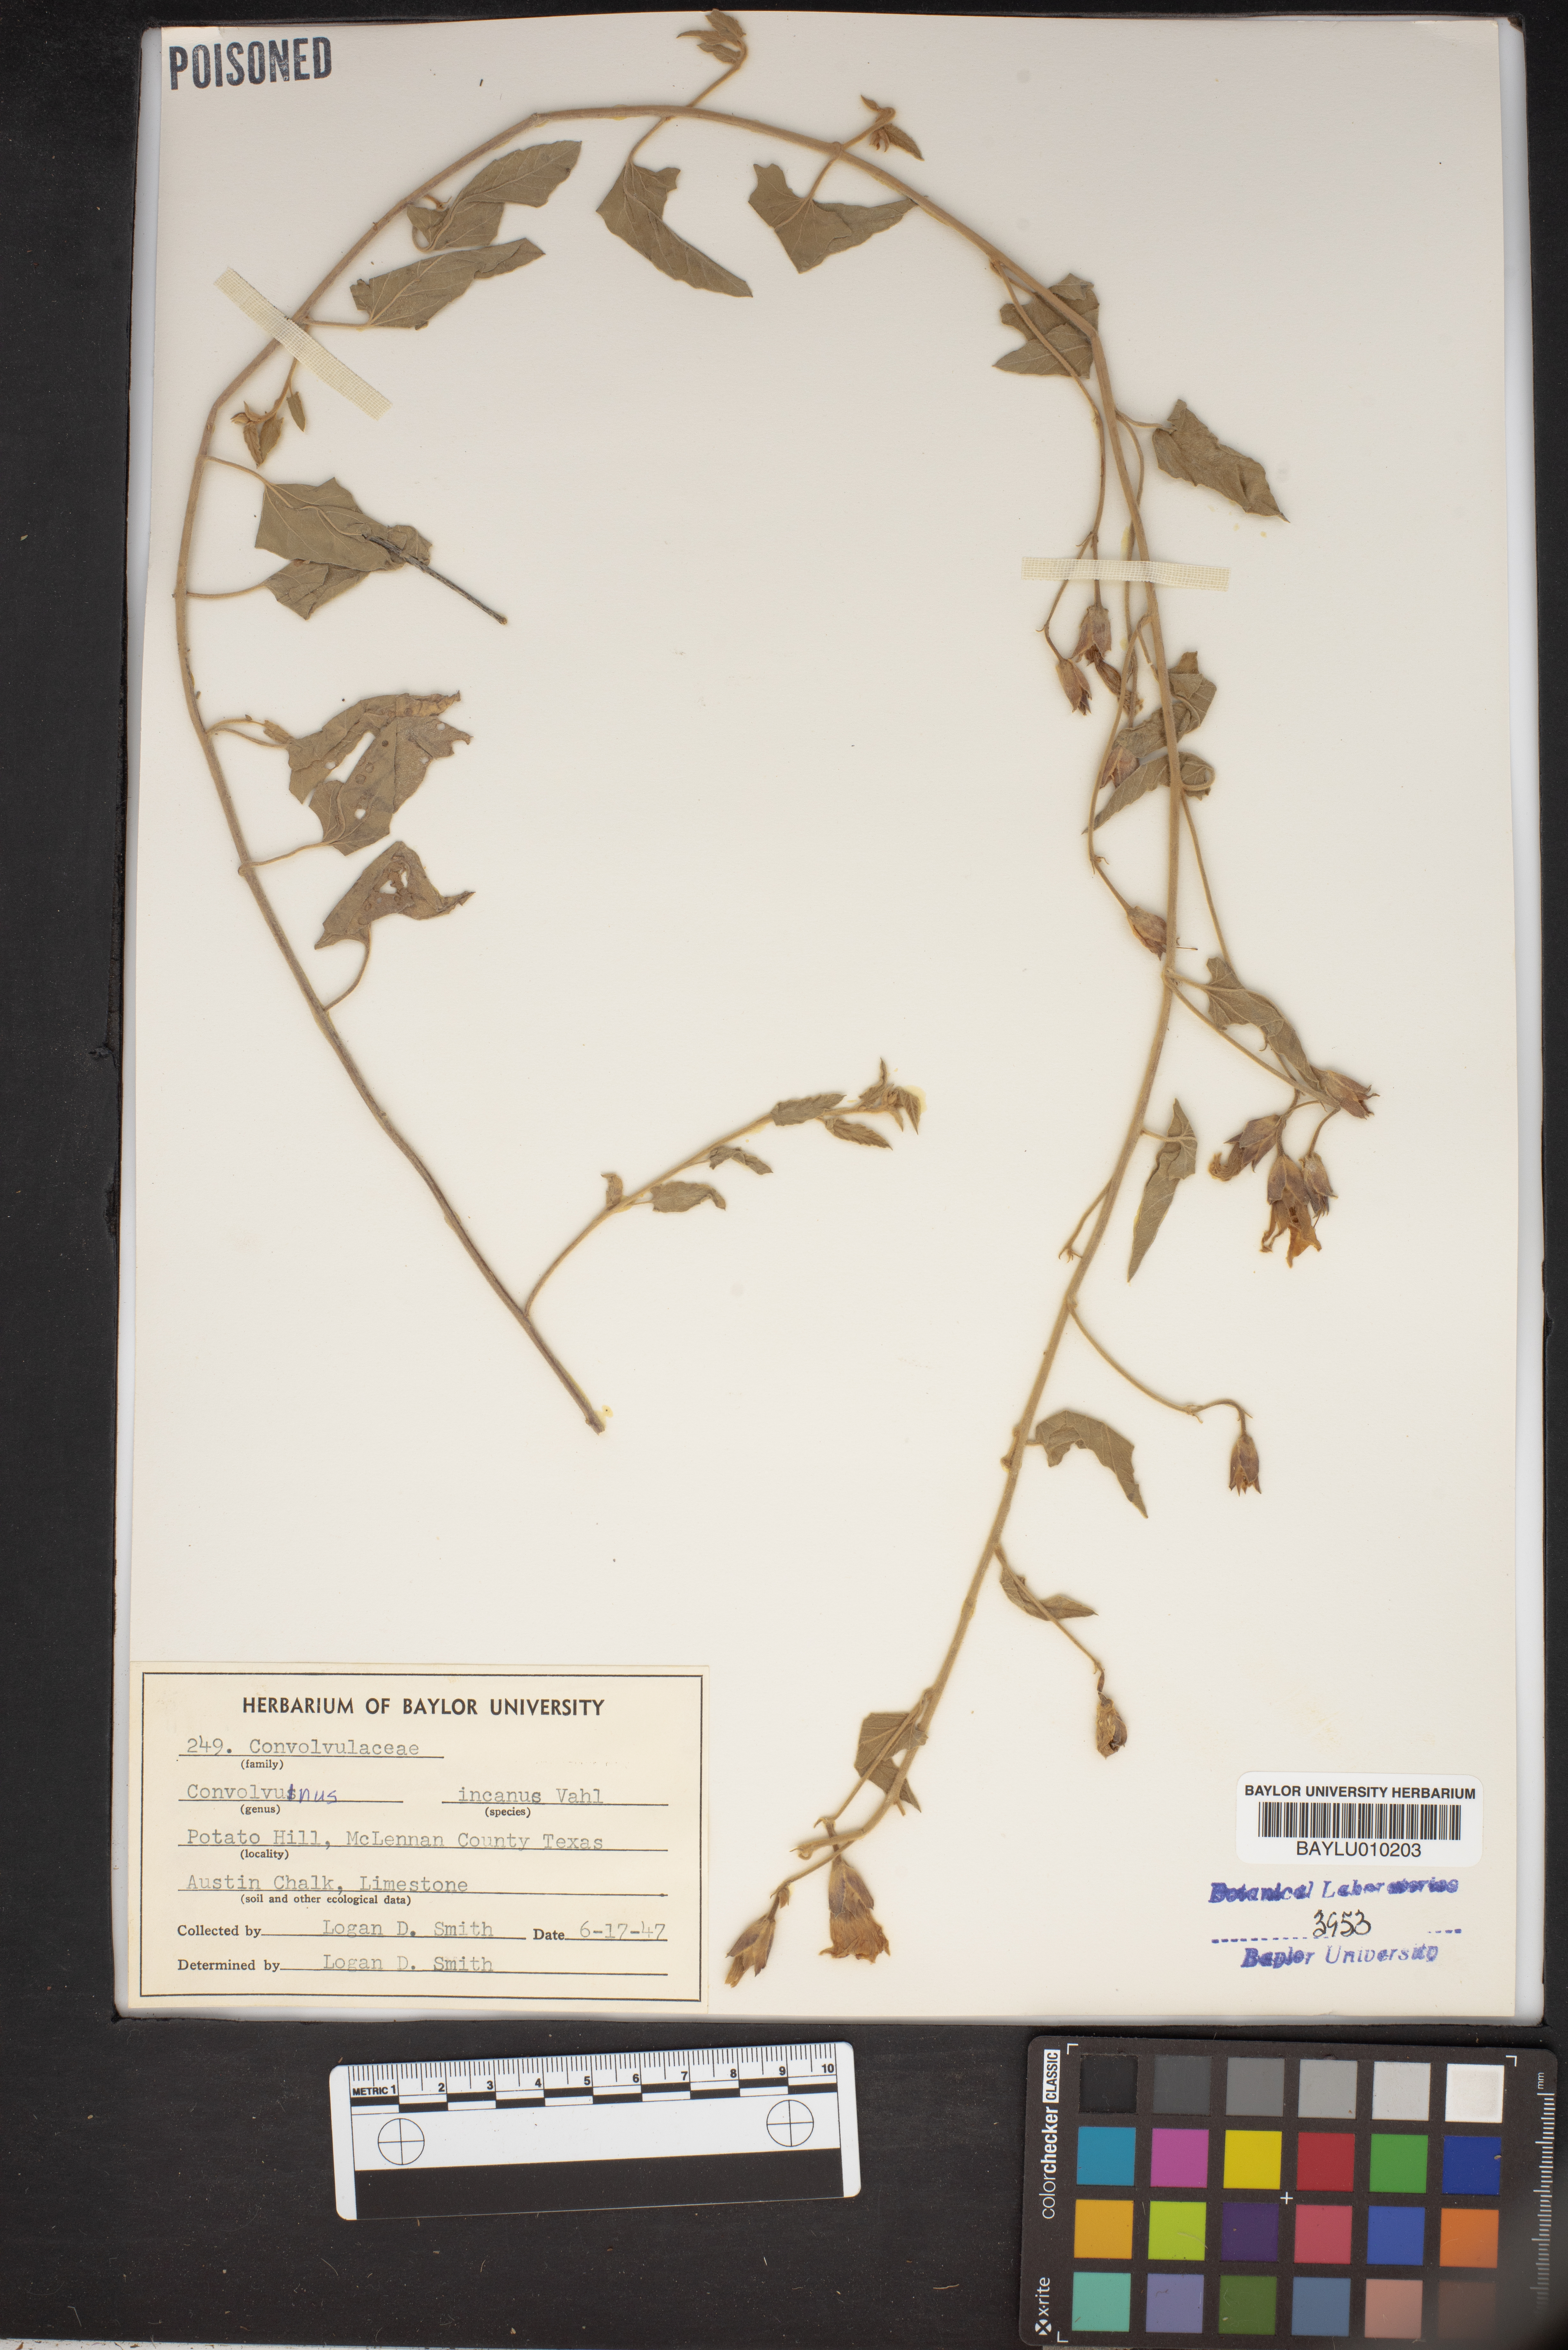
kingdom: Plantae
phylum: Tracheophyta
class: Magnoliopsida
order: Solanales
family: Convolvulaceae
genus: Convolvulus
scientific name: Convolvulus hermanniae
